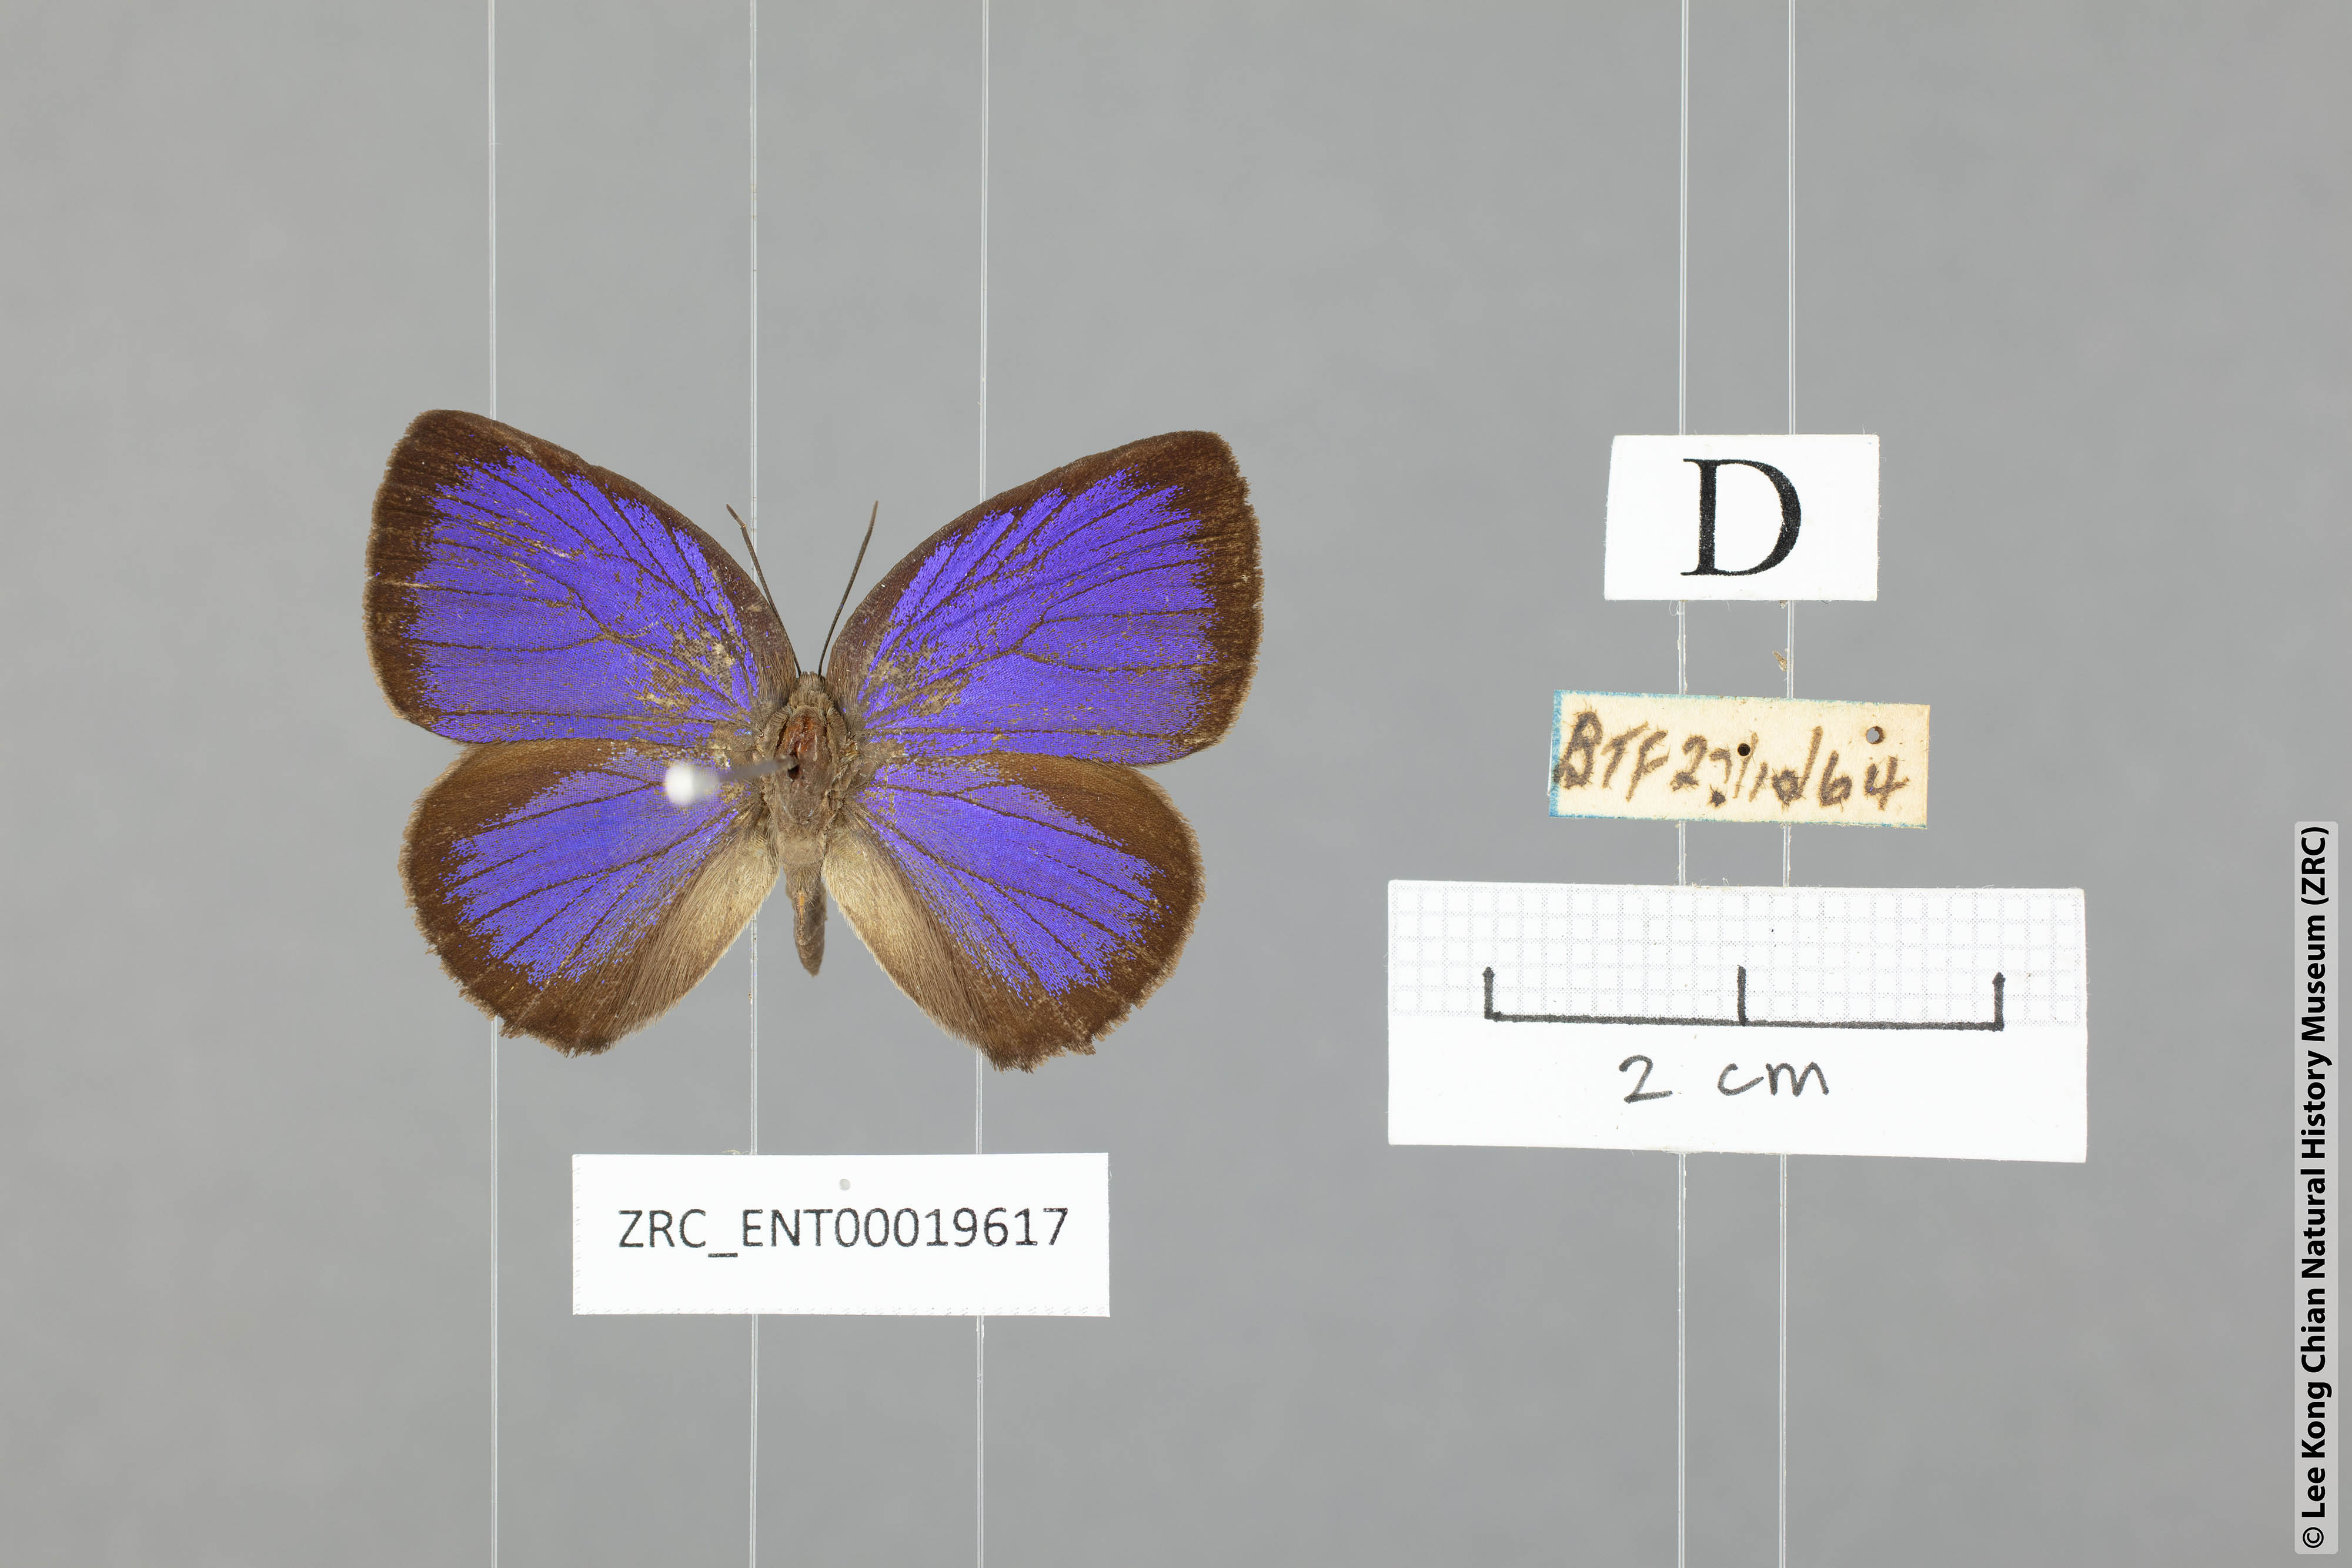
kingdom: Animalia
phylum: Arthropoda
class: Insecta
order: Lepidoptera
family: Lycaenidae
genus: Arhopala
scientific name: Arhopala major
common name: Major yellow oakblue
